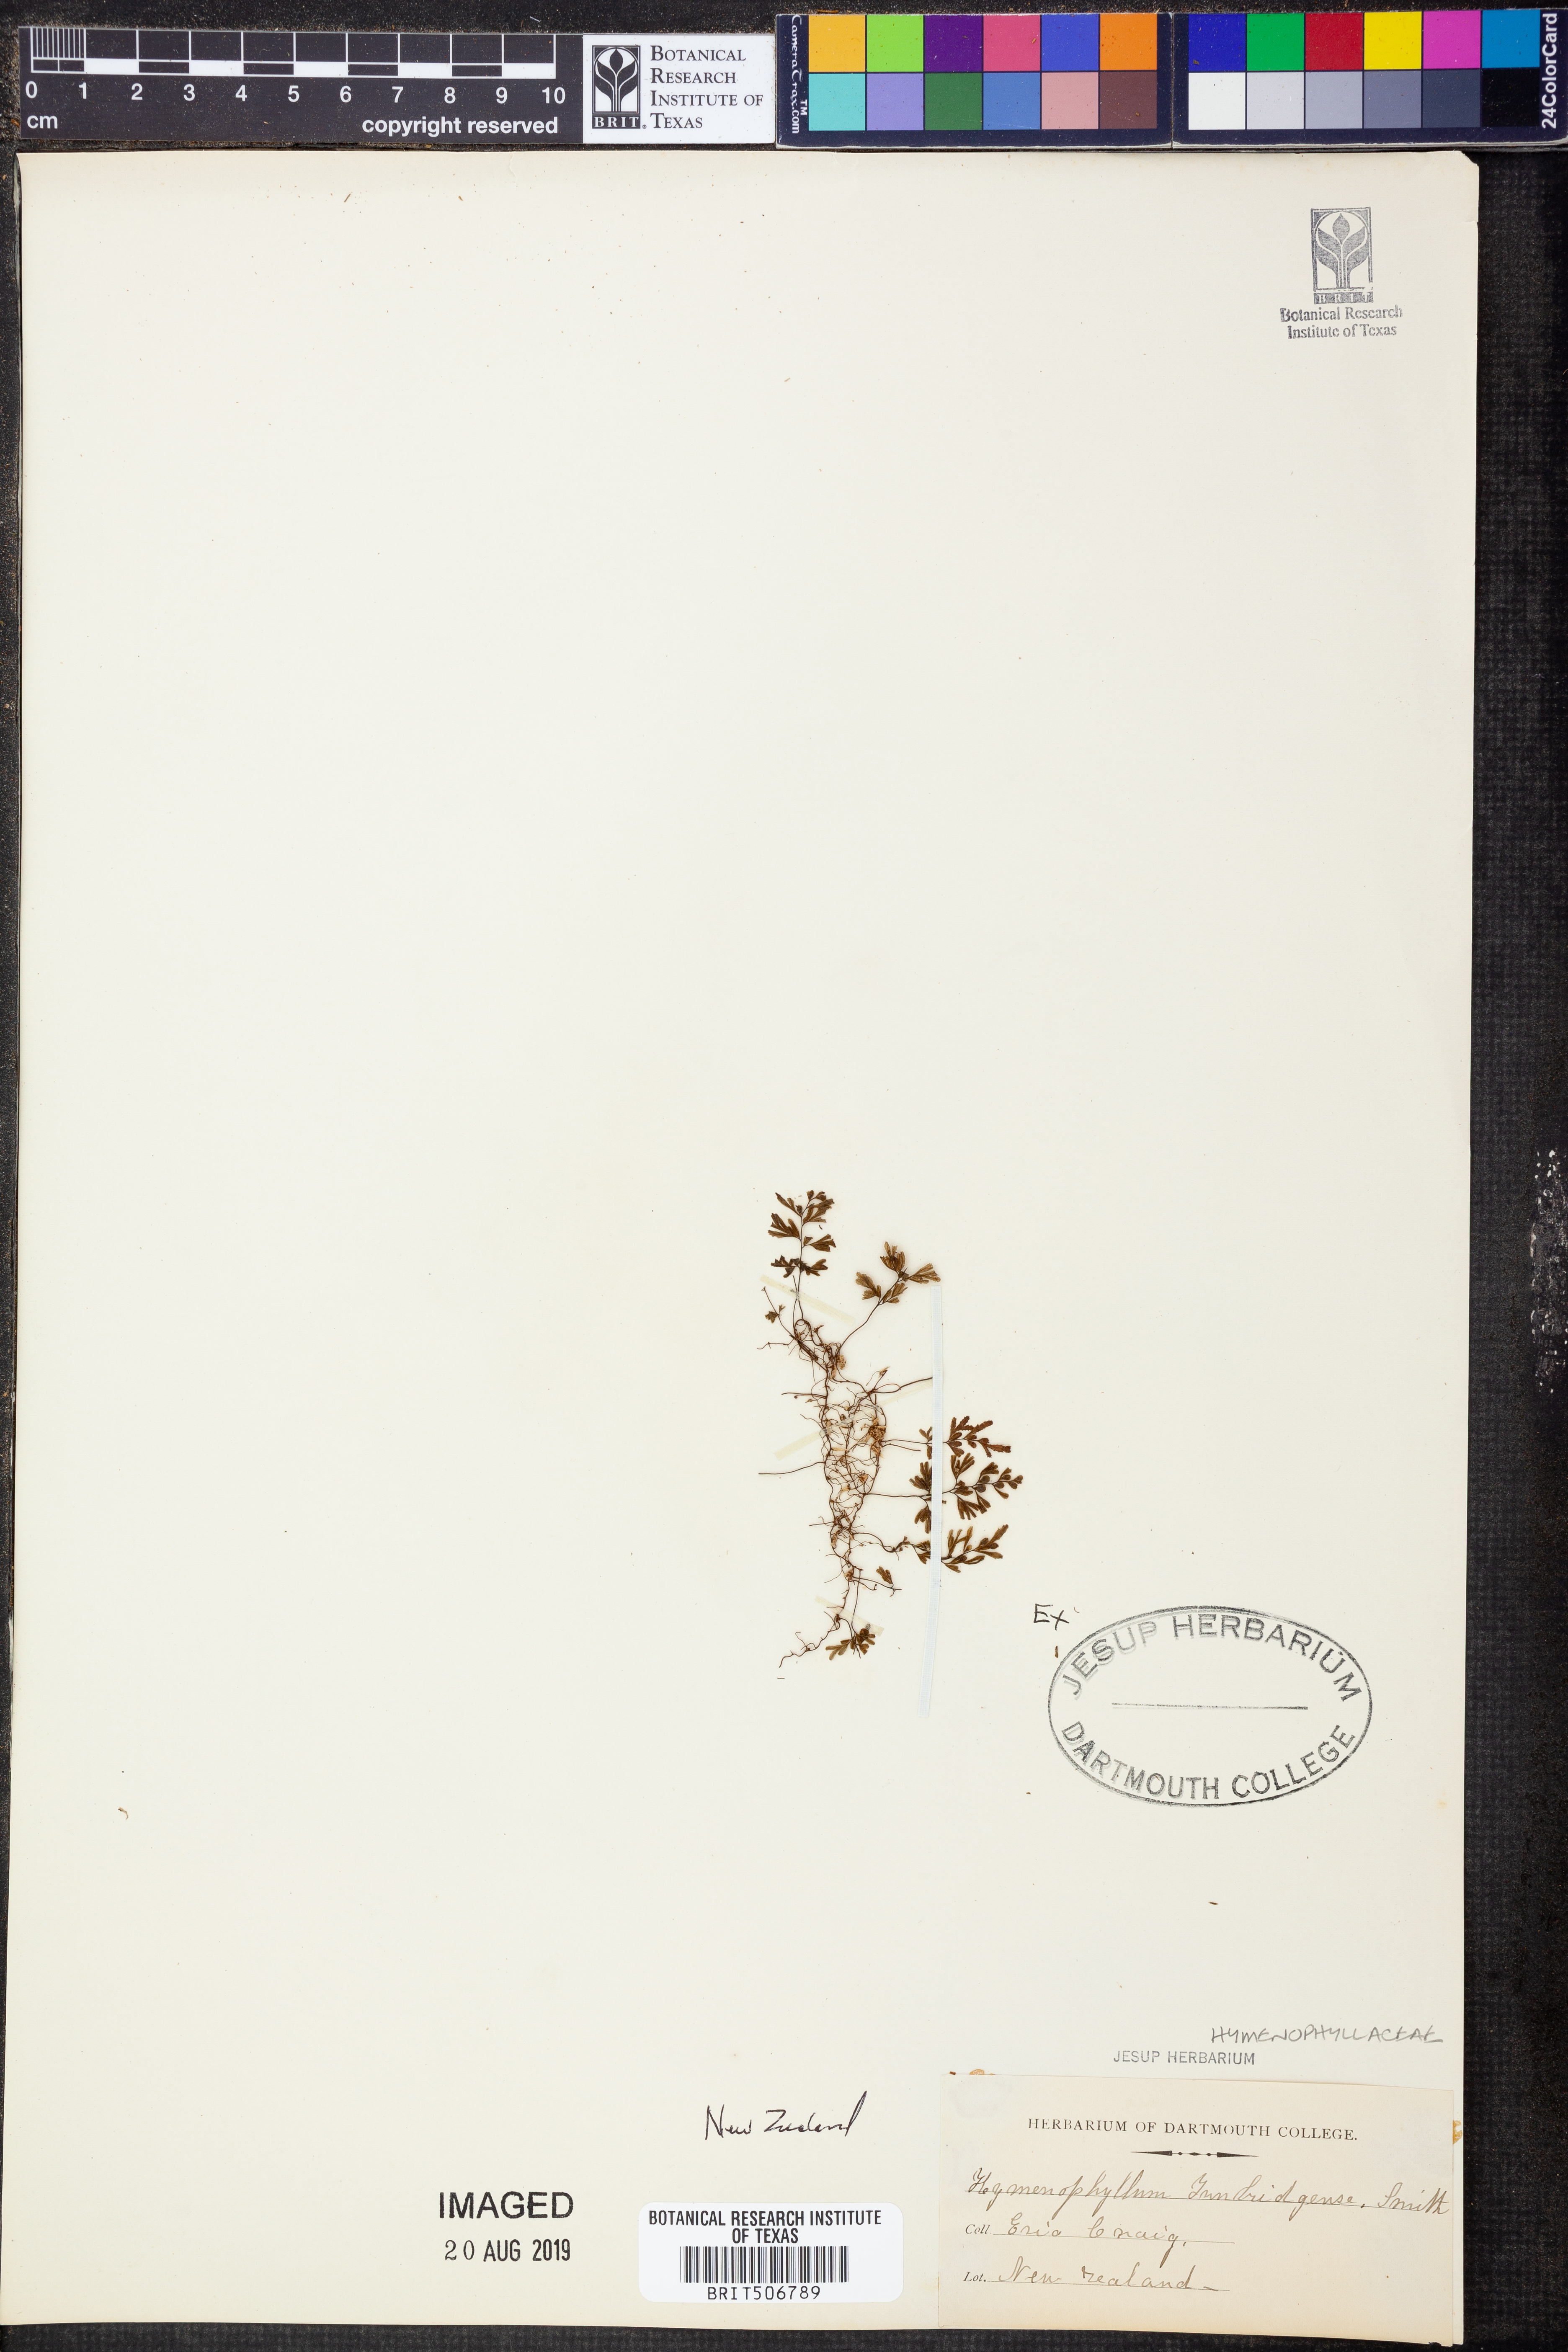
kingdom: Plantae
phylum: Tracheophyta
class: Polypodiopsida
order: Hymenophyllales
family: Hymenophyllaceae
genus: Hymenophyllum
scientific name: Hymenophyllum tunbridgense
